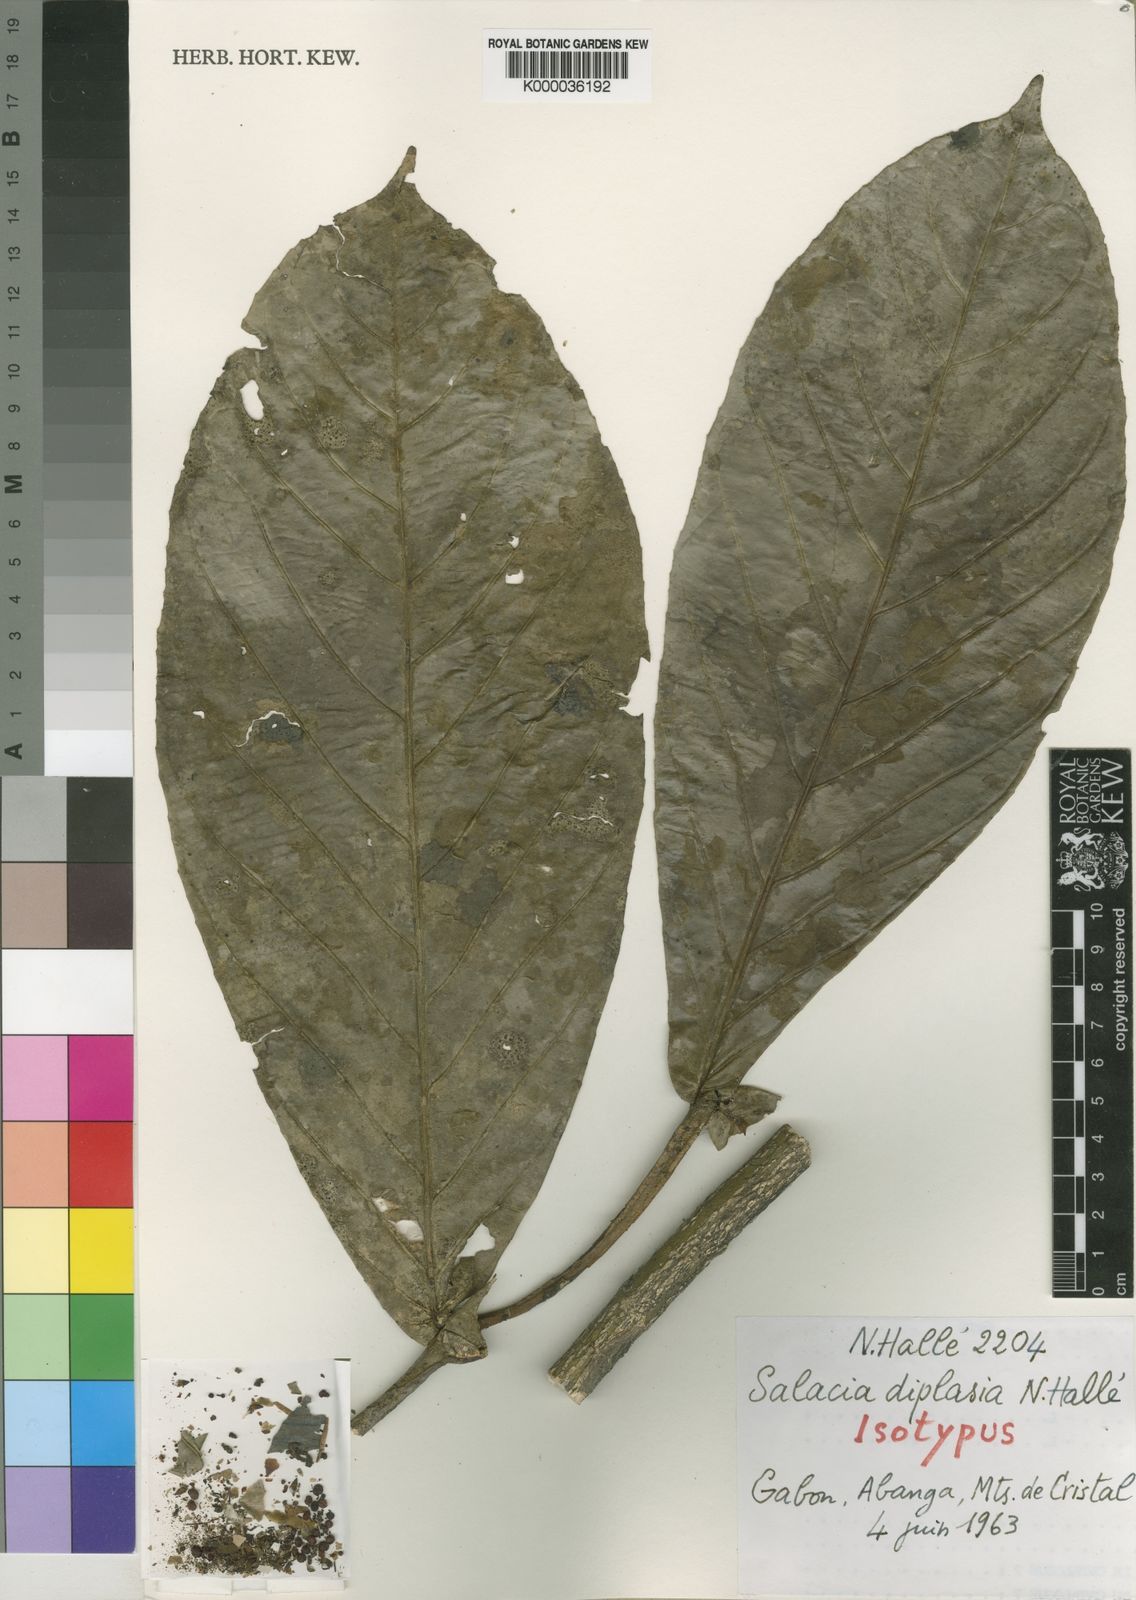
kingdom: Plantae
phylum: Tracheophyta
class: Magnoliopsida
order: Celastrales
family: Celastraceae
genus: Salacia
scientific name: Salacia
